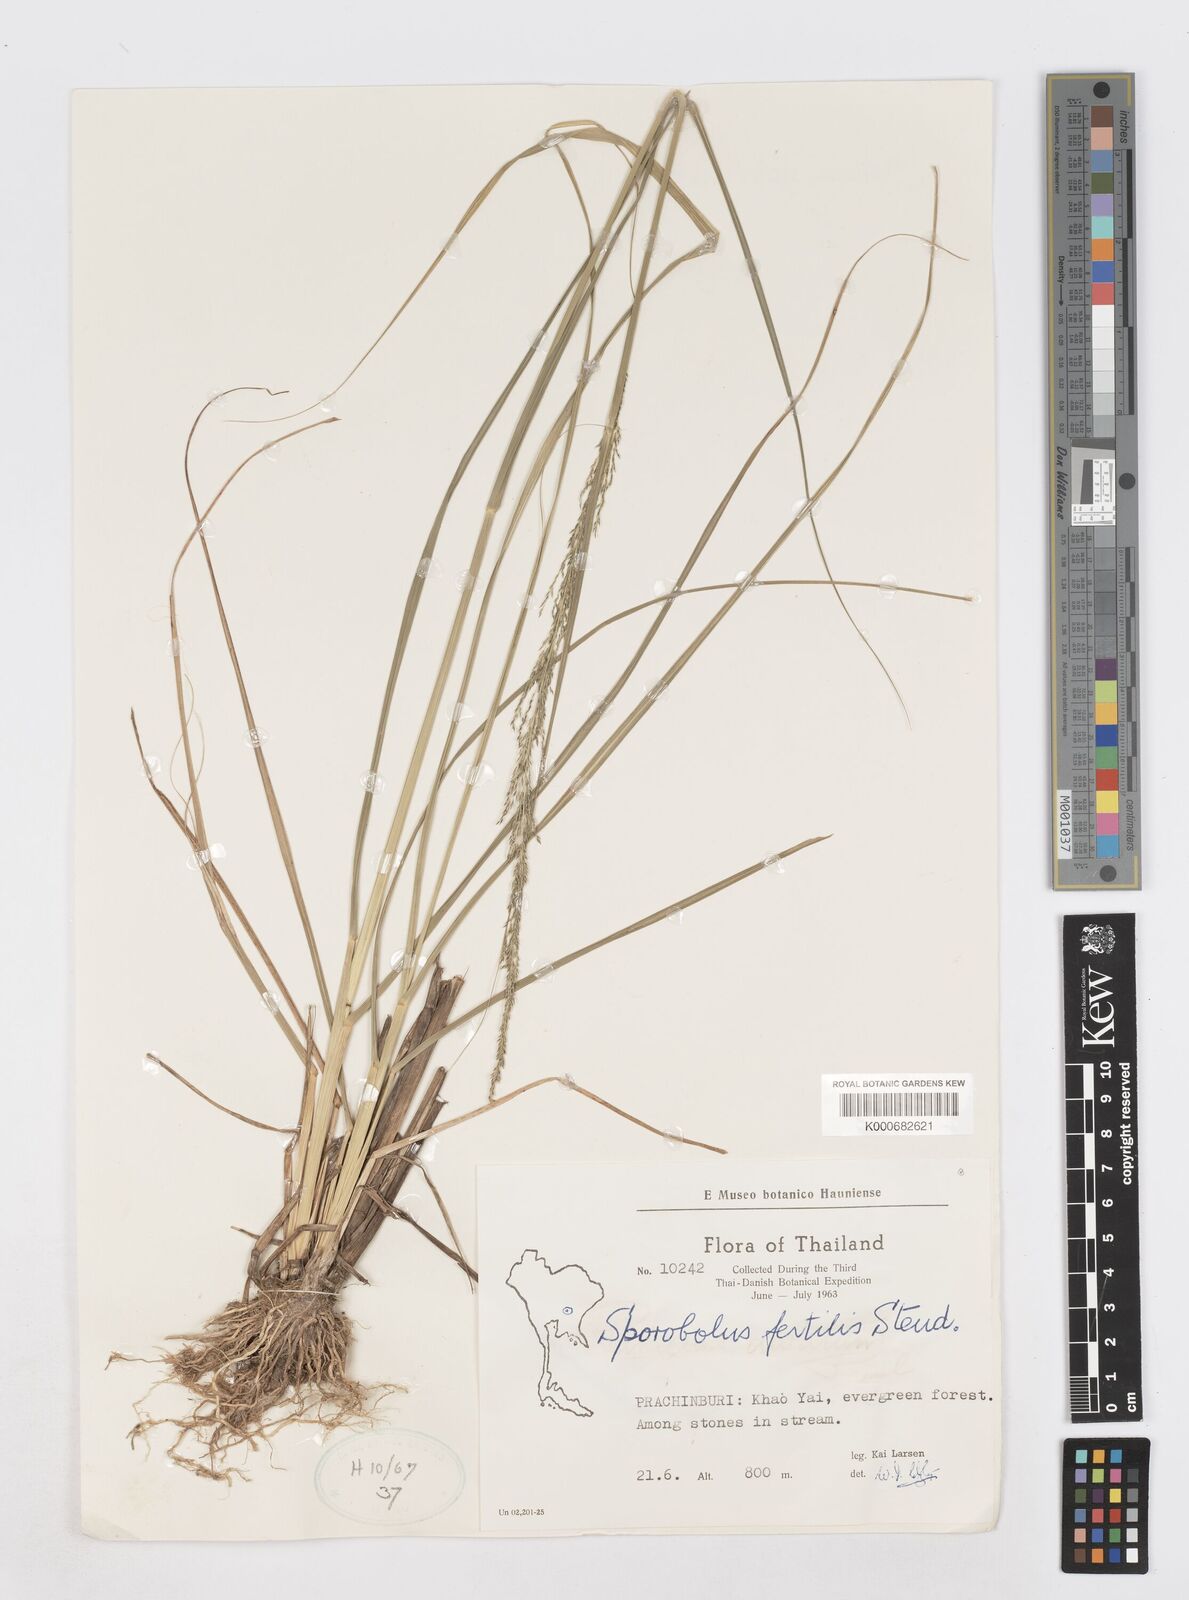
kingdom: Plantae
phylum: Tracheophyta
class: Liliopsida
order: Poales
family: Poaceae
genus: Sporobolus
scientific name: Sporobolus fertilis
